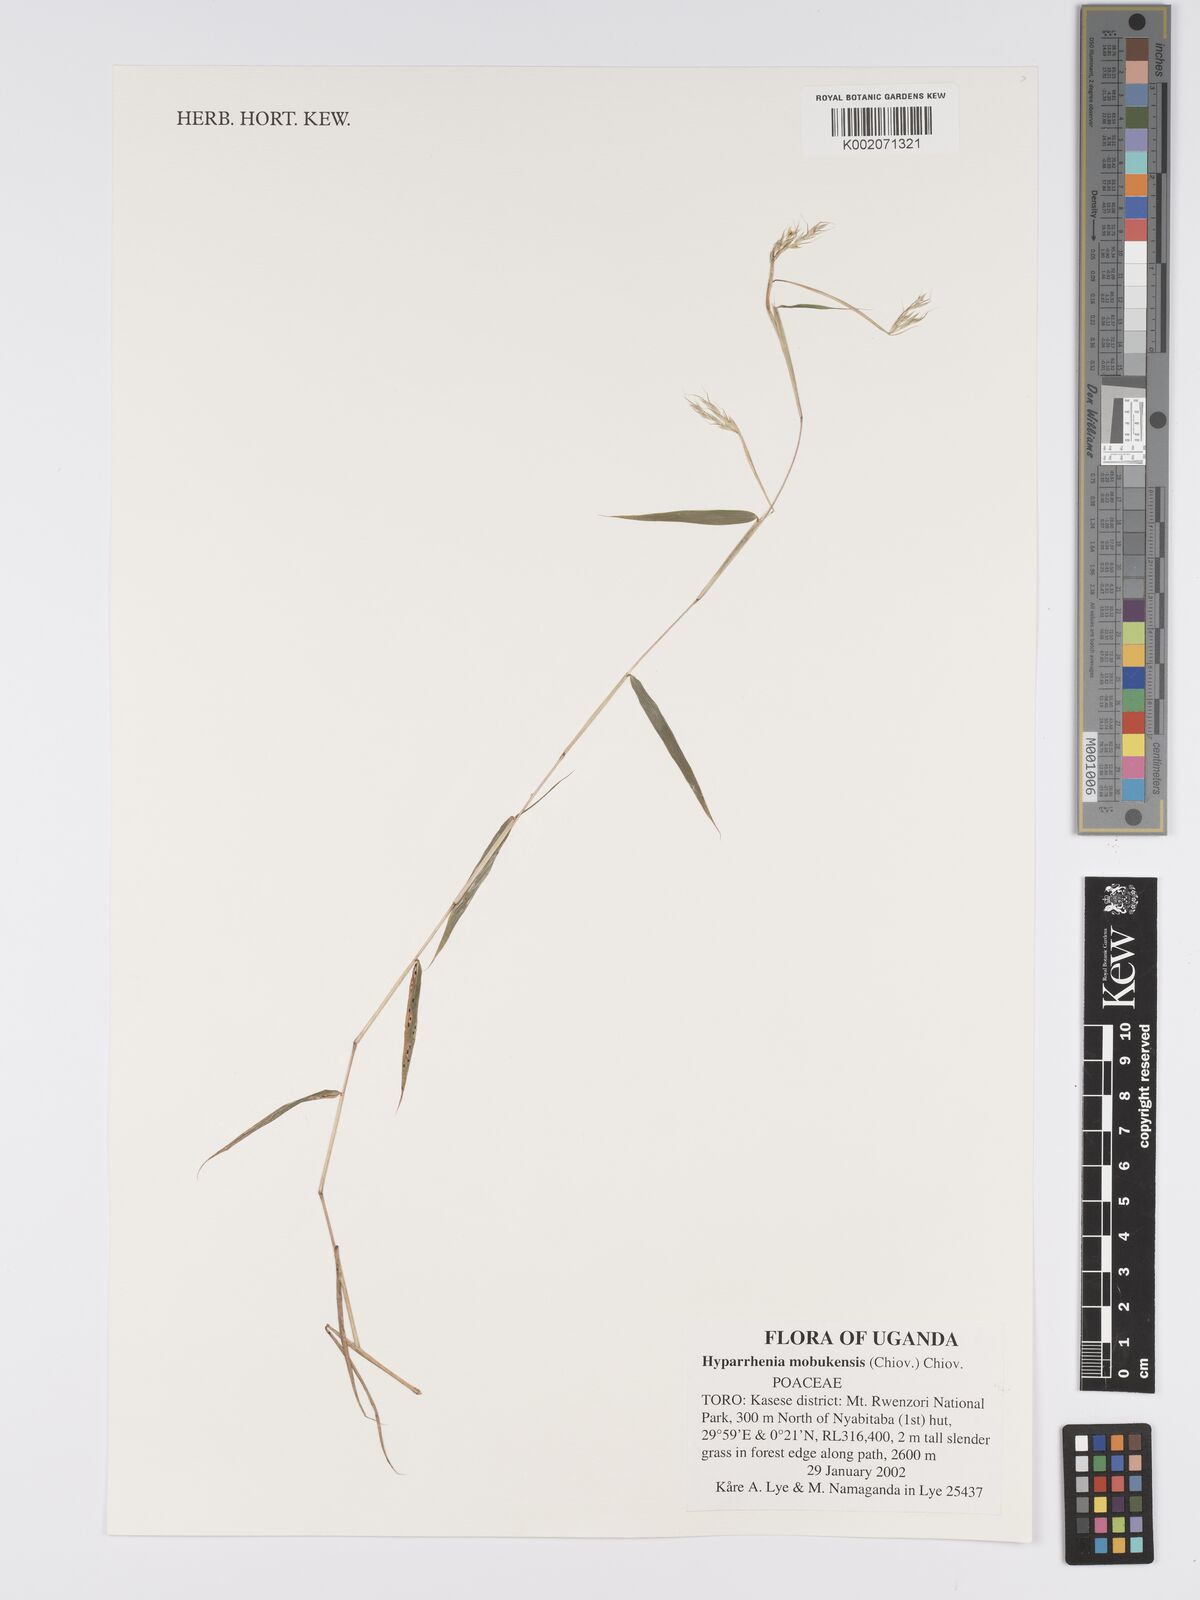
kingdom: Plantae
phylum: Tracheophyta
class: Liliopsida
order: Poales
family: Poaceae
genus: Hyparrhenia
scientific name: Hyparrhenia mobukensis
